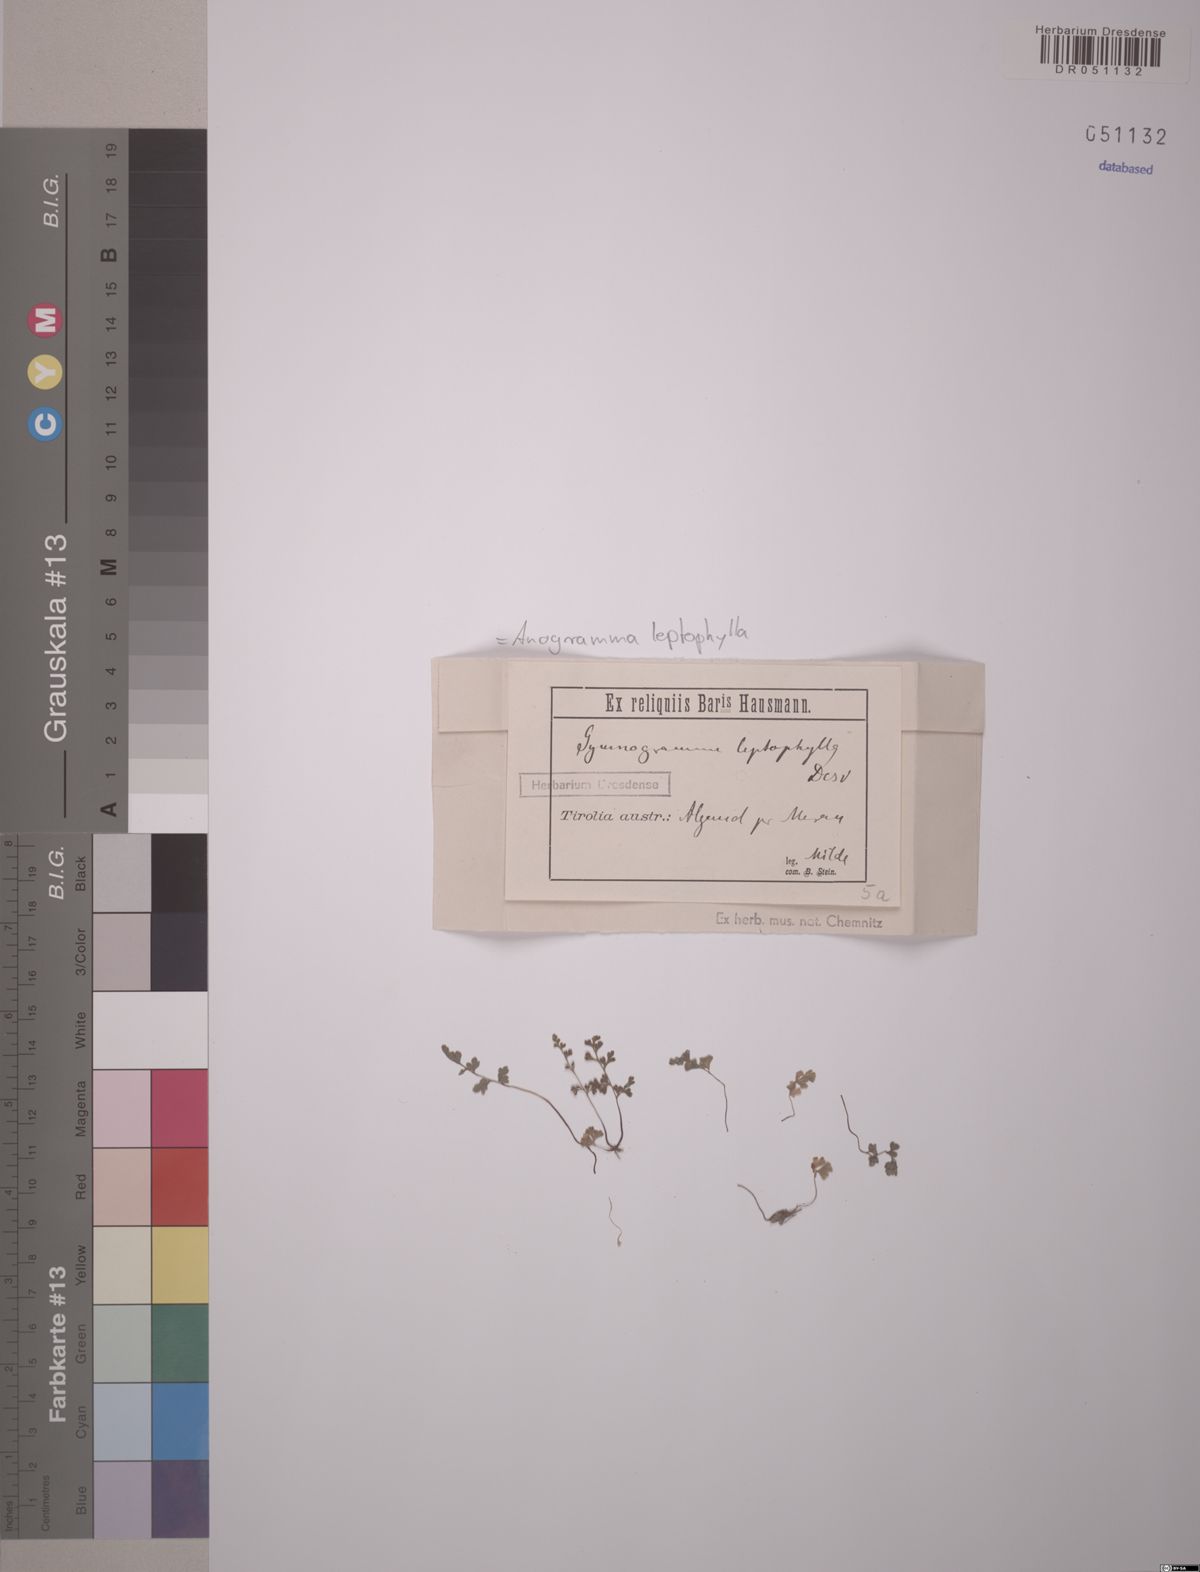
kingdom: Plantae
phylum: Tracheophyta
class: Polypodiopsida
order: Polypodiales
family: Pteridaceae
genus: Anogramma
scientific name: Anogramma leptophylla
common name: Jersey fern
